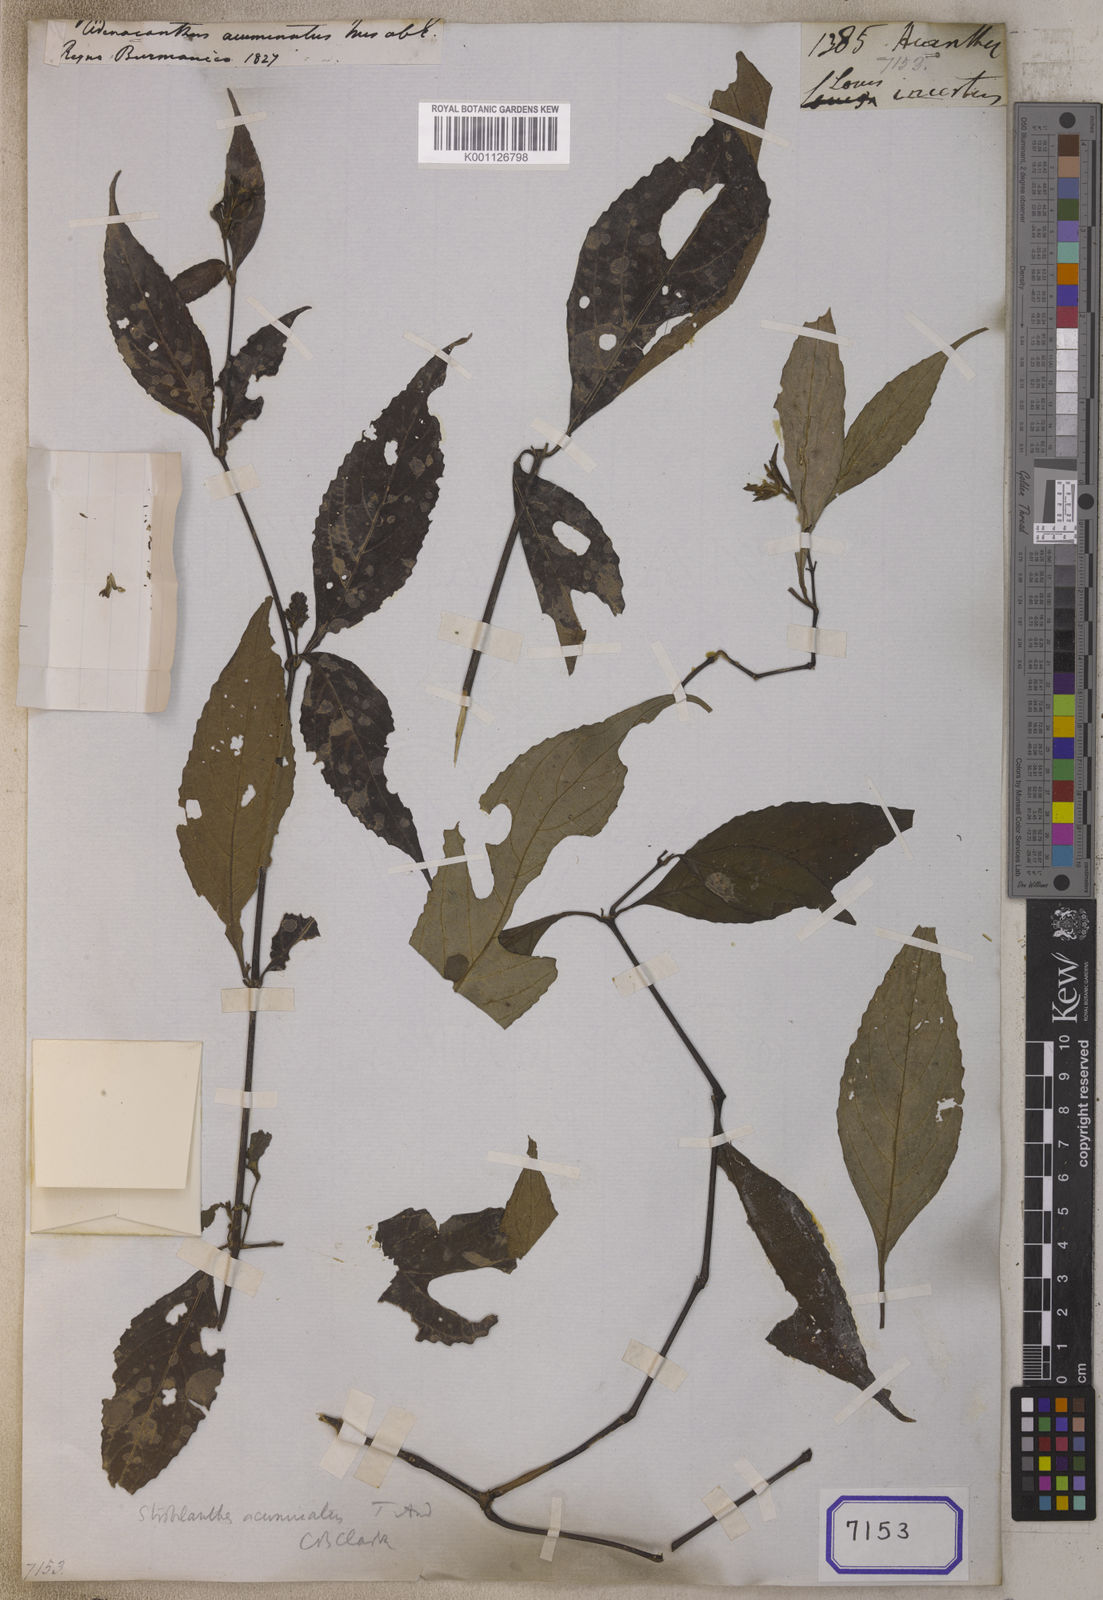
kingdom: Plantae
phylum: Tracheophyta
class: Magnoliopsida
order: Lamiales
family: Acanthaceae
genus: Strobilanthes
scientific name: Strobilanthes repanda
